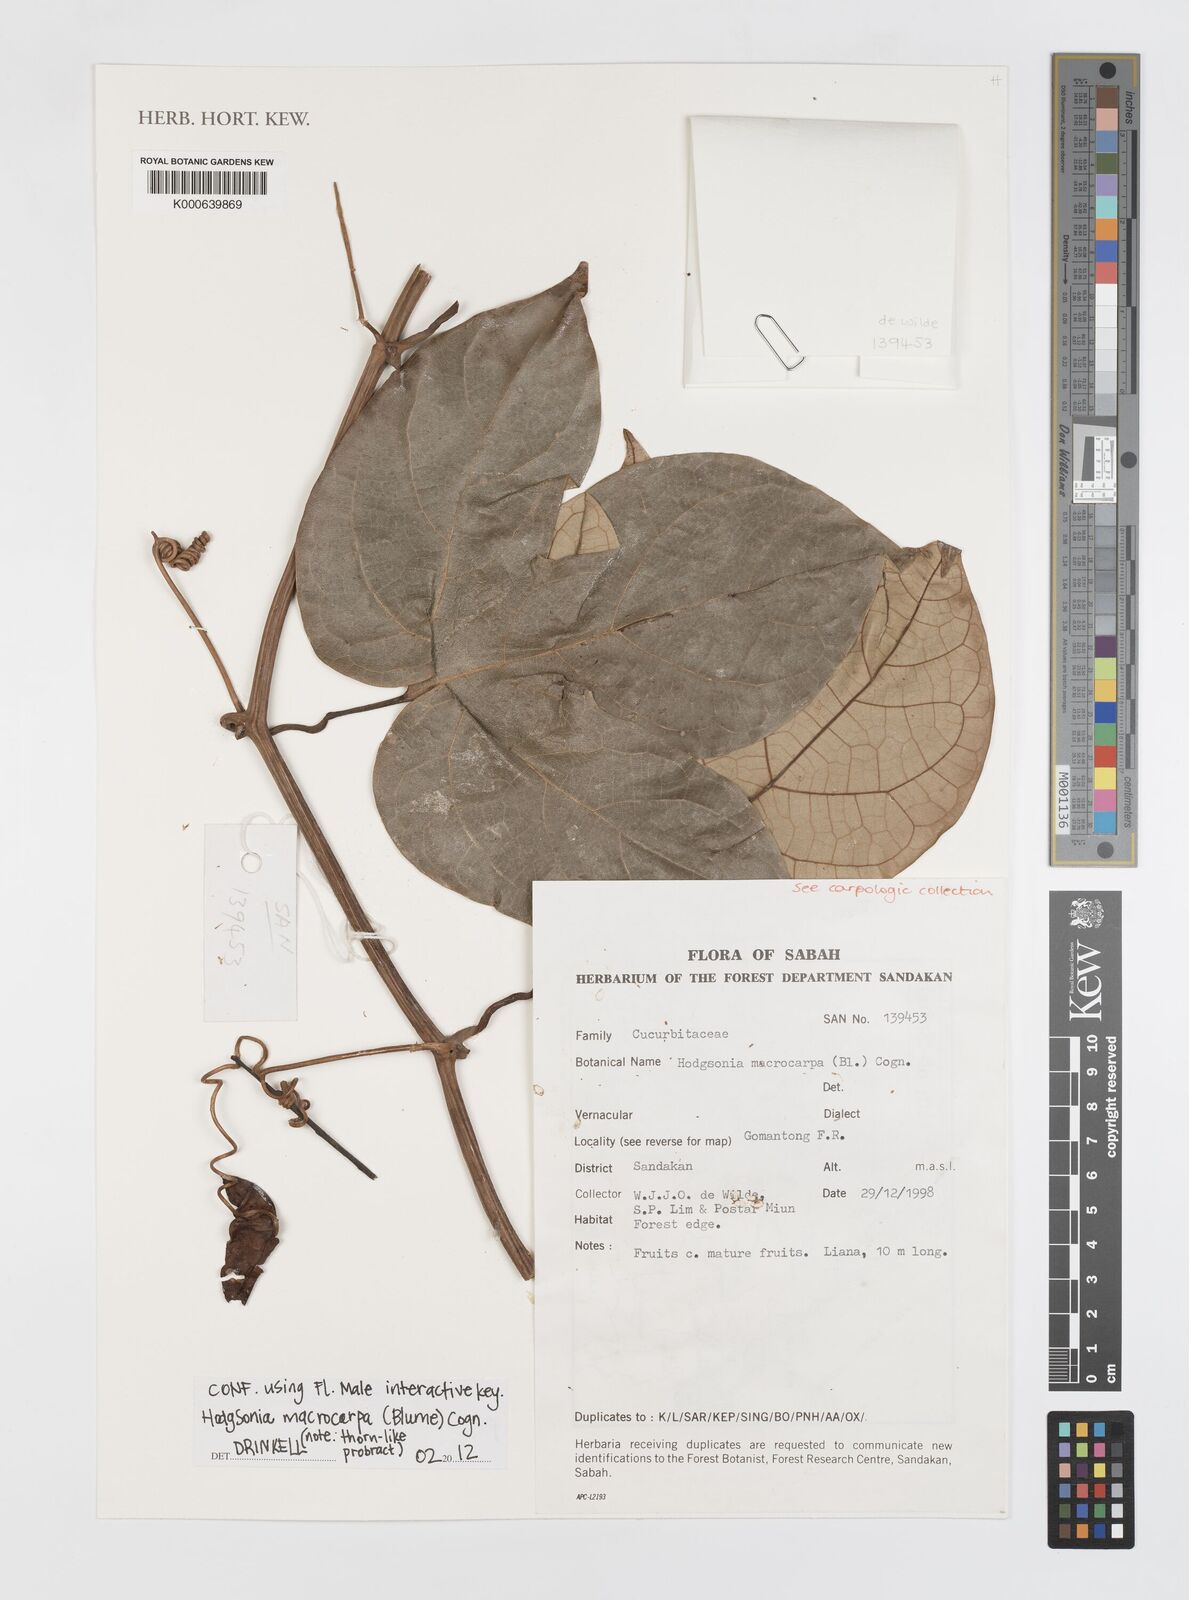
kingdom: Plantae
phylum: Tracheophyta
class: Magnoliopsida
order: Cucurbitales
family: Cucurbitaceae
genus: Hodgsonia
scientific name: Hodgsonia macrocarpa
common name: Chinese lardfruit
